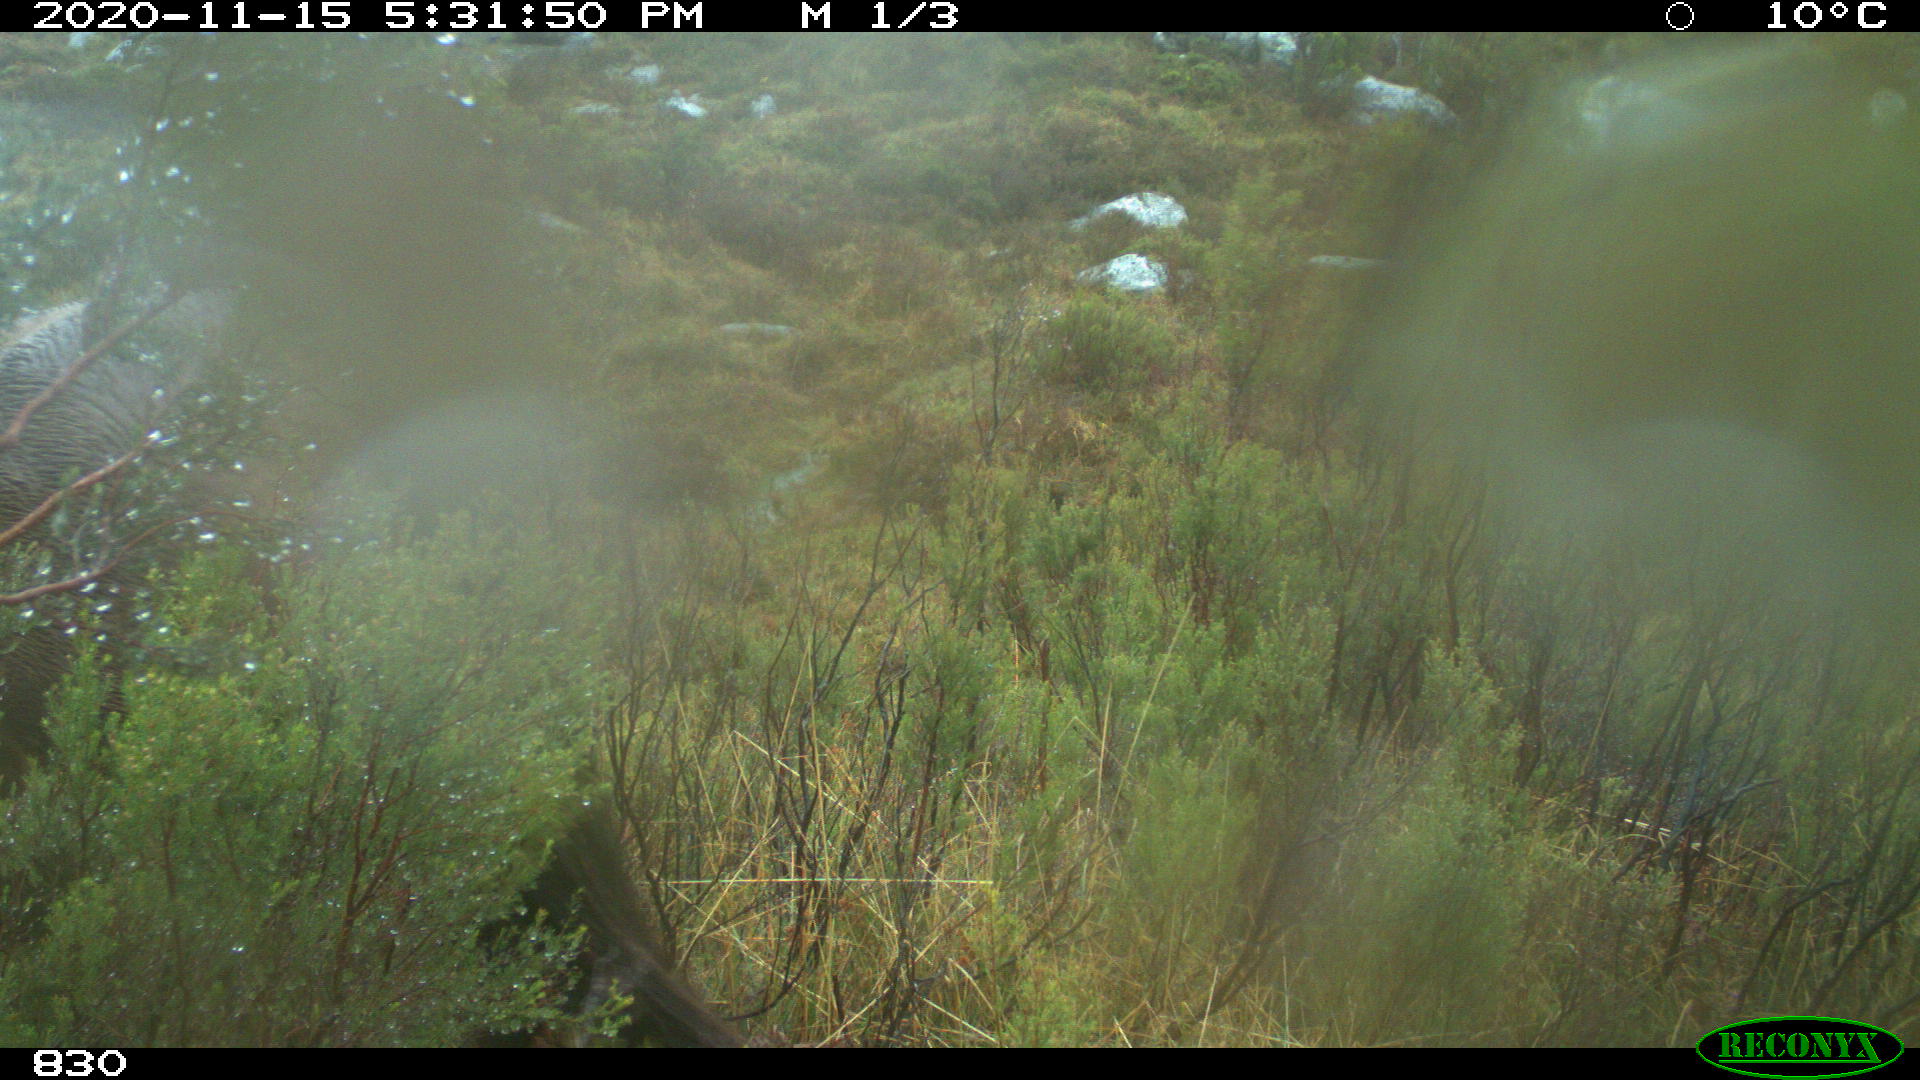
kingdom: Animalia
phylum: Chordata
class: Mammalia
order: Perissodactyla
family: Equidae
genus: Equus
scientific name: Equus caballus
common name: Horse
